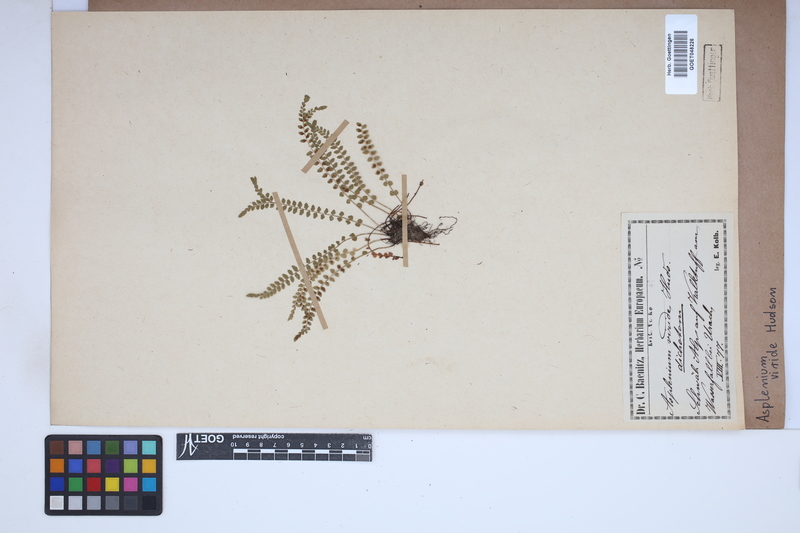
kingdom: Plantae
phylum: Tracheophyta
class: Polypodiopsida
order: Polypodiales
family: Aspleniaceae
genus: Asplenium
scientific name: Asplenium viride
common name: Green spleenwort
